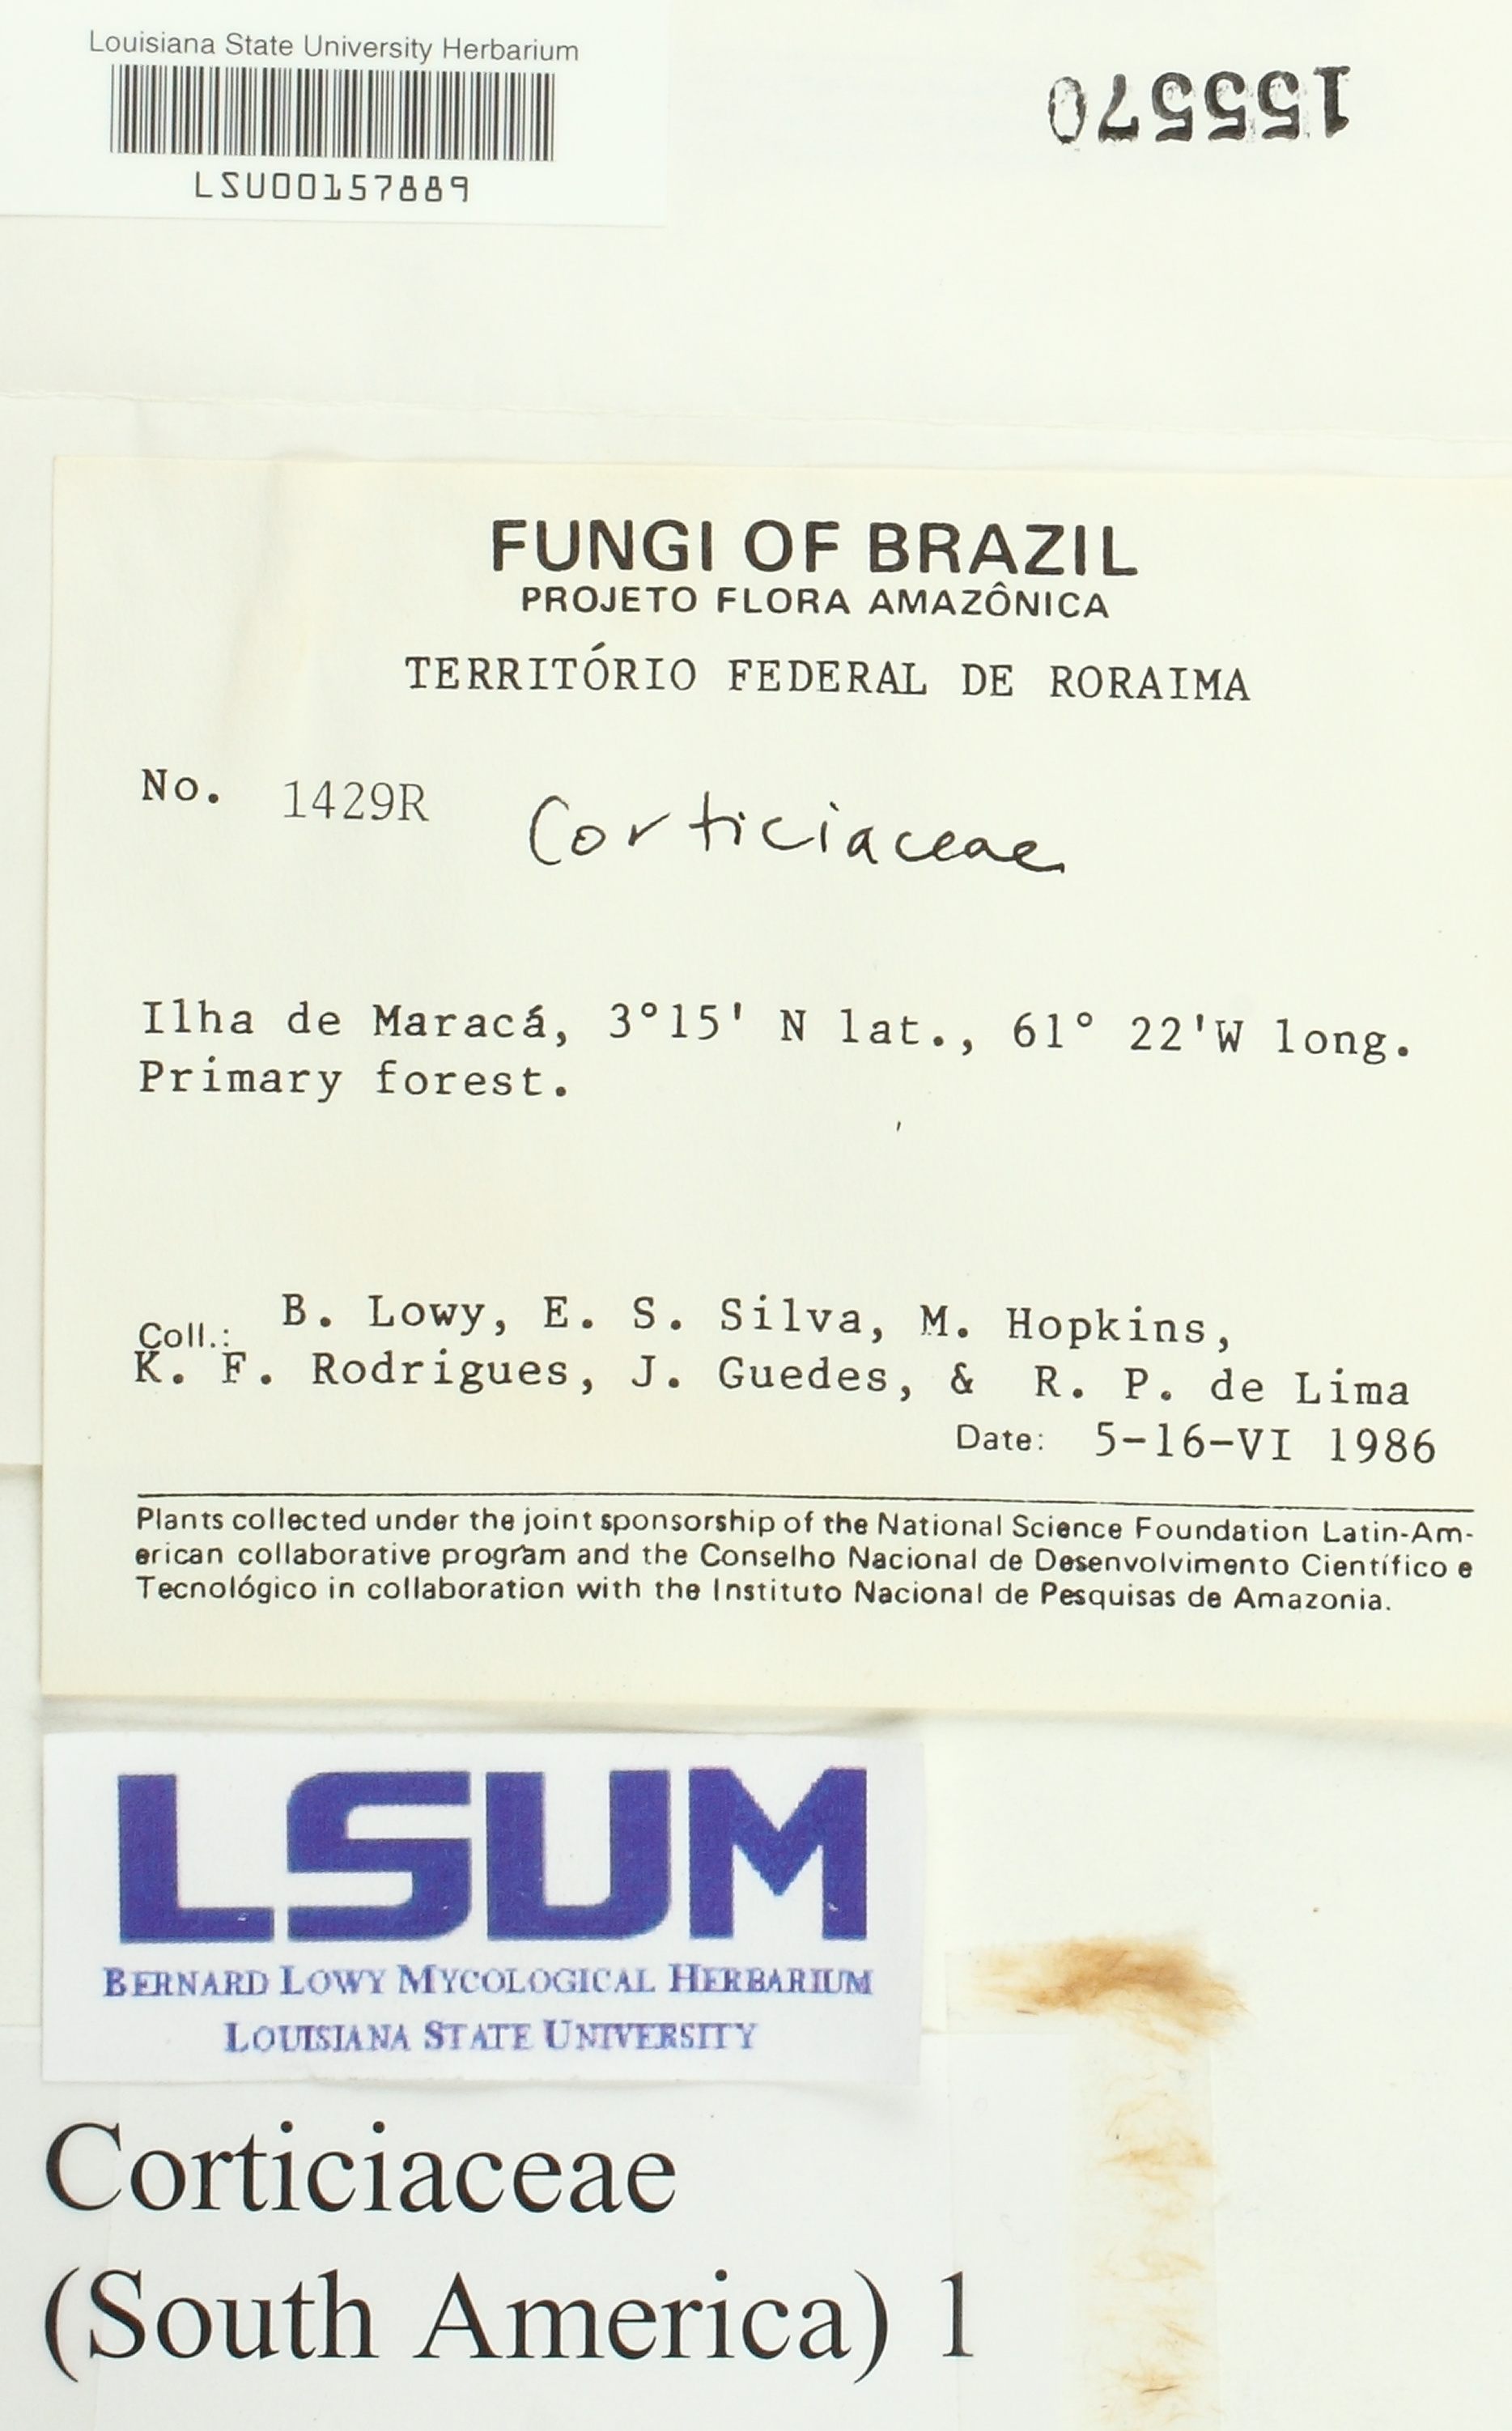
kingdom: Fungi
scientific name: Fungi
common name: Fungi
